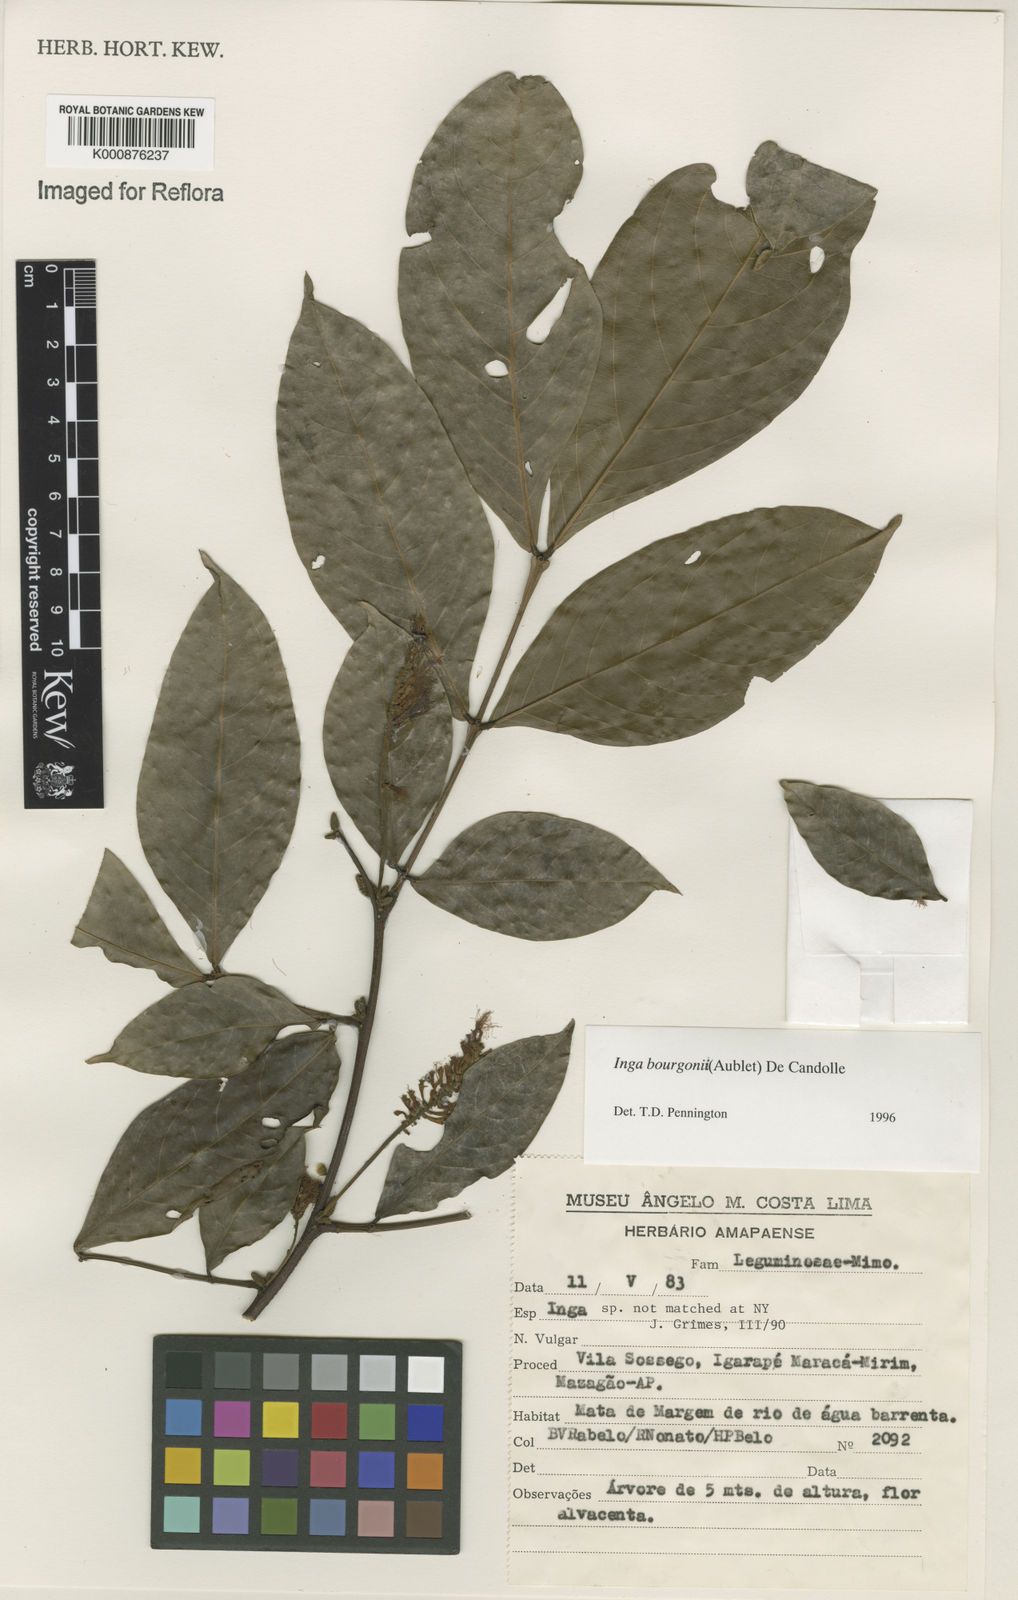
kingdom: Plantae
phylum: Tracheophyta
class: Magnoliopsida
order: Fabales
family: Fabaceae
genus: Inga
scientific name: Inga bourgoni
